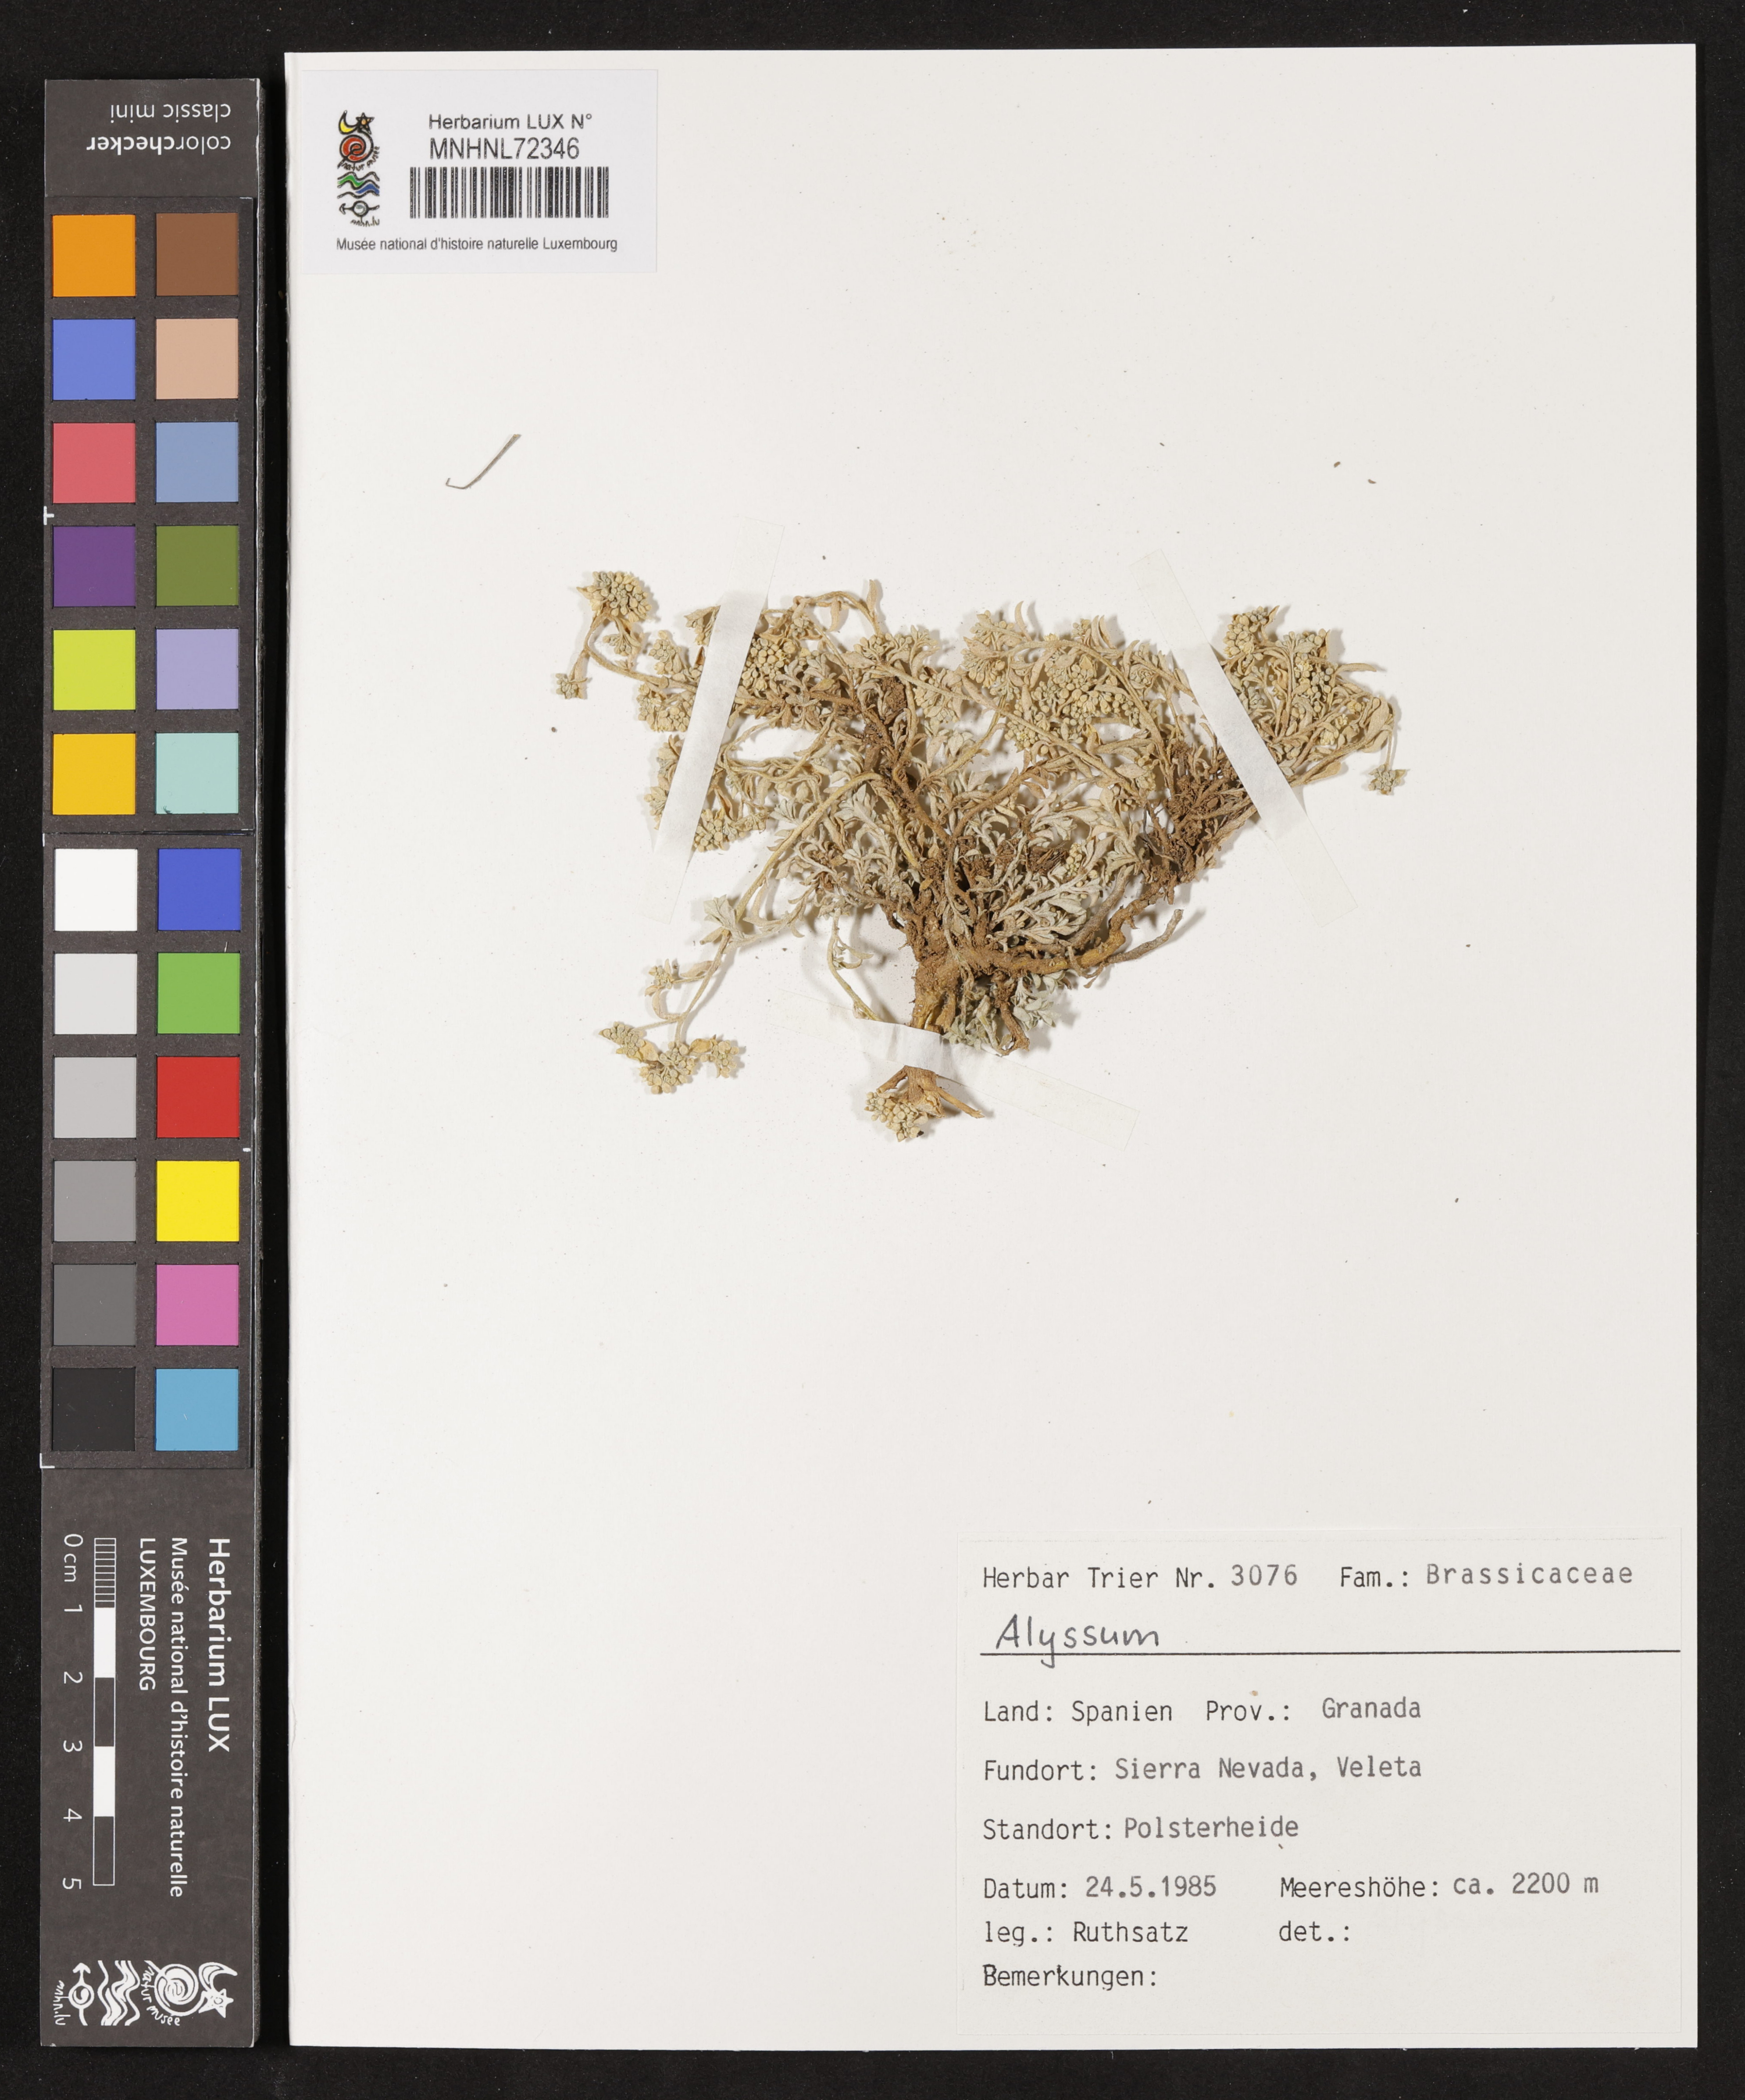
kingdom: Plantae
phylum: Tracheophyta
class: Magnoliopsida
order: Brassicales
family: Brassicaceae
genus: Alyssum
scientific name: Alyssum
